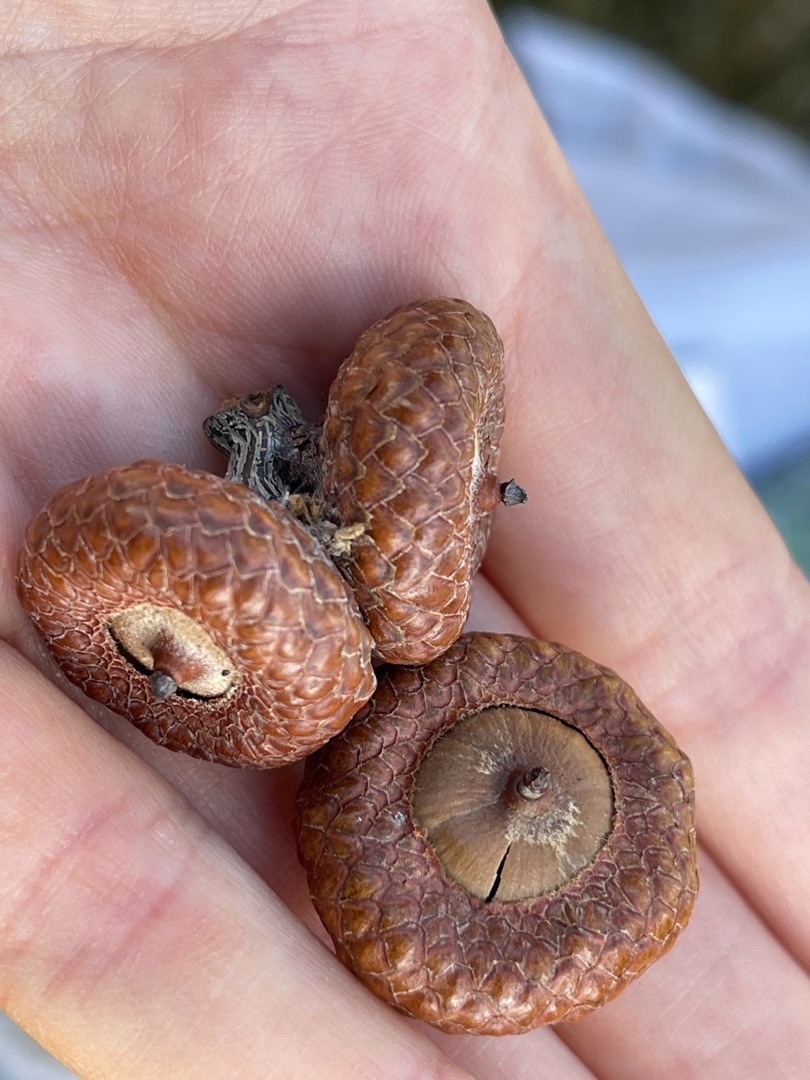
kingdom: Plantae
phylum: Tracheophyta
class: Magnoliopsida
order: Fagales
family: Fagaceae
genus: Quercus
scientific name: Quercus
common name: Egeslægten
